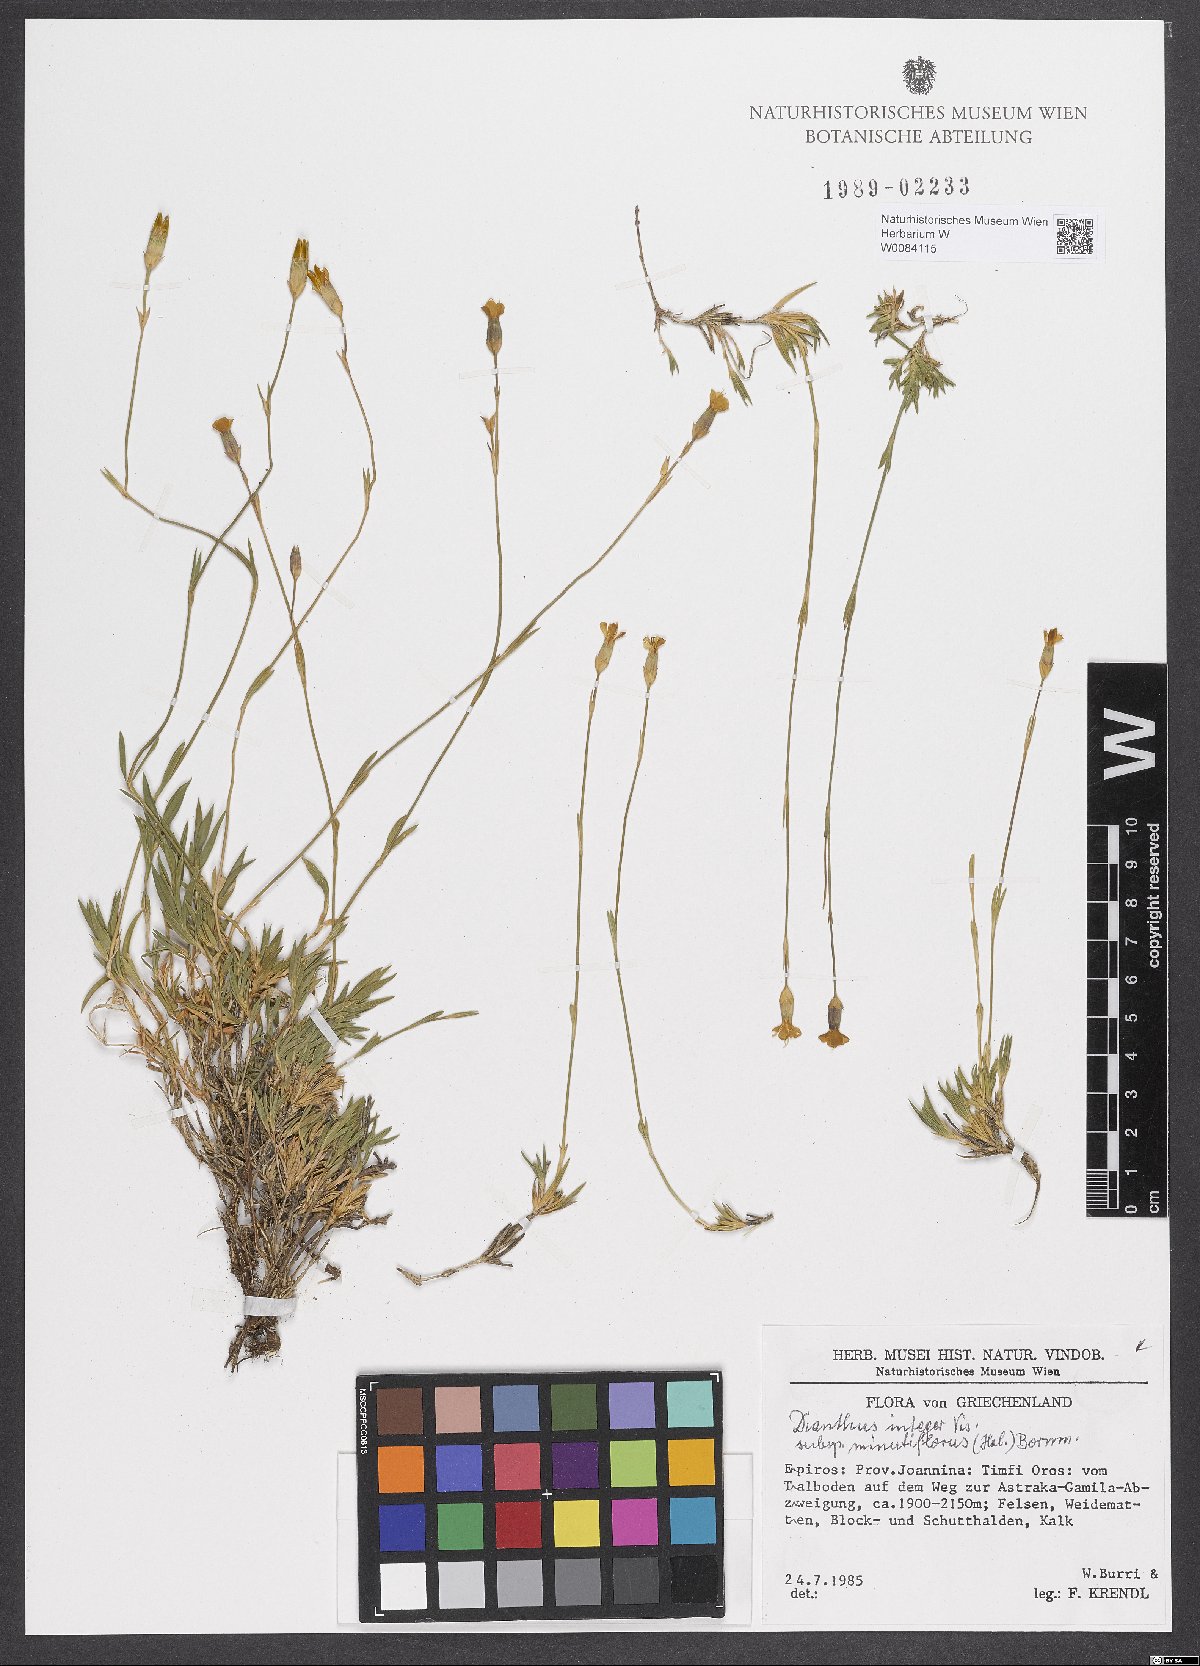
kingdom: Plantae
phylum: Tracheophyta
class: Magnoliopsida
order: Caryophyllales
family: Caryophyllaceae
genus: Dianthus
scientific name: Dianthus integer
